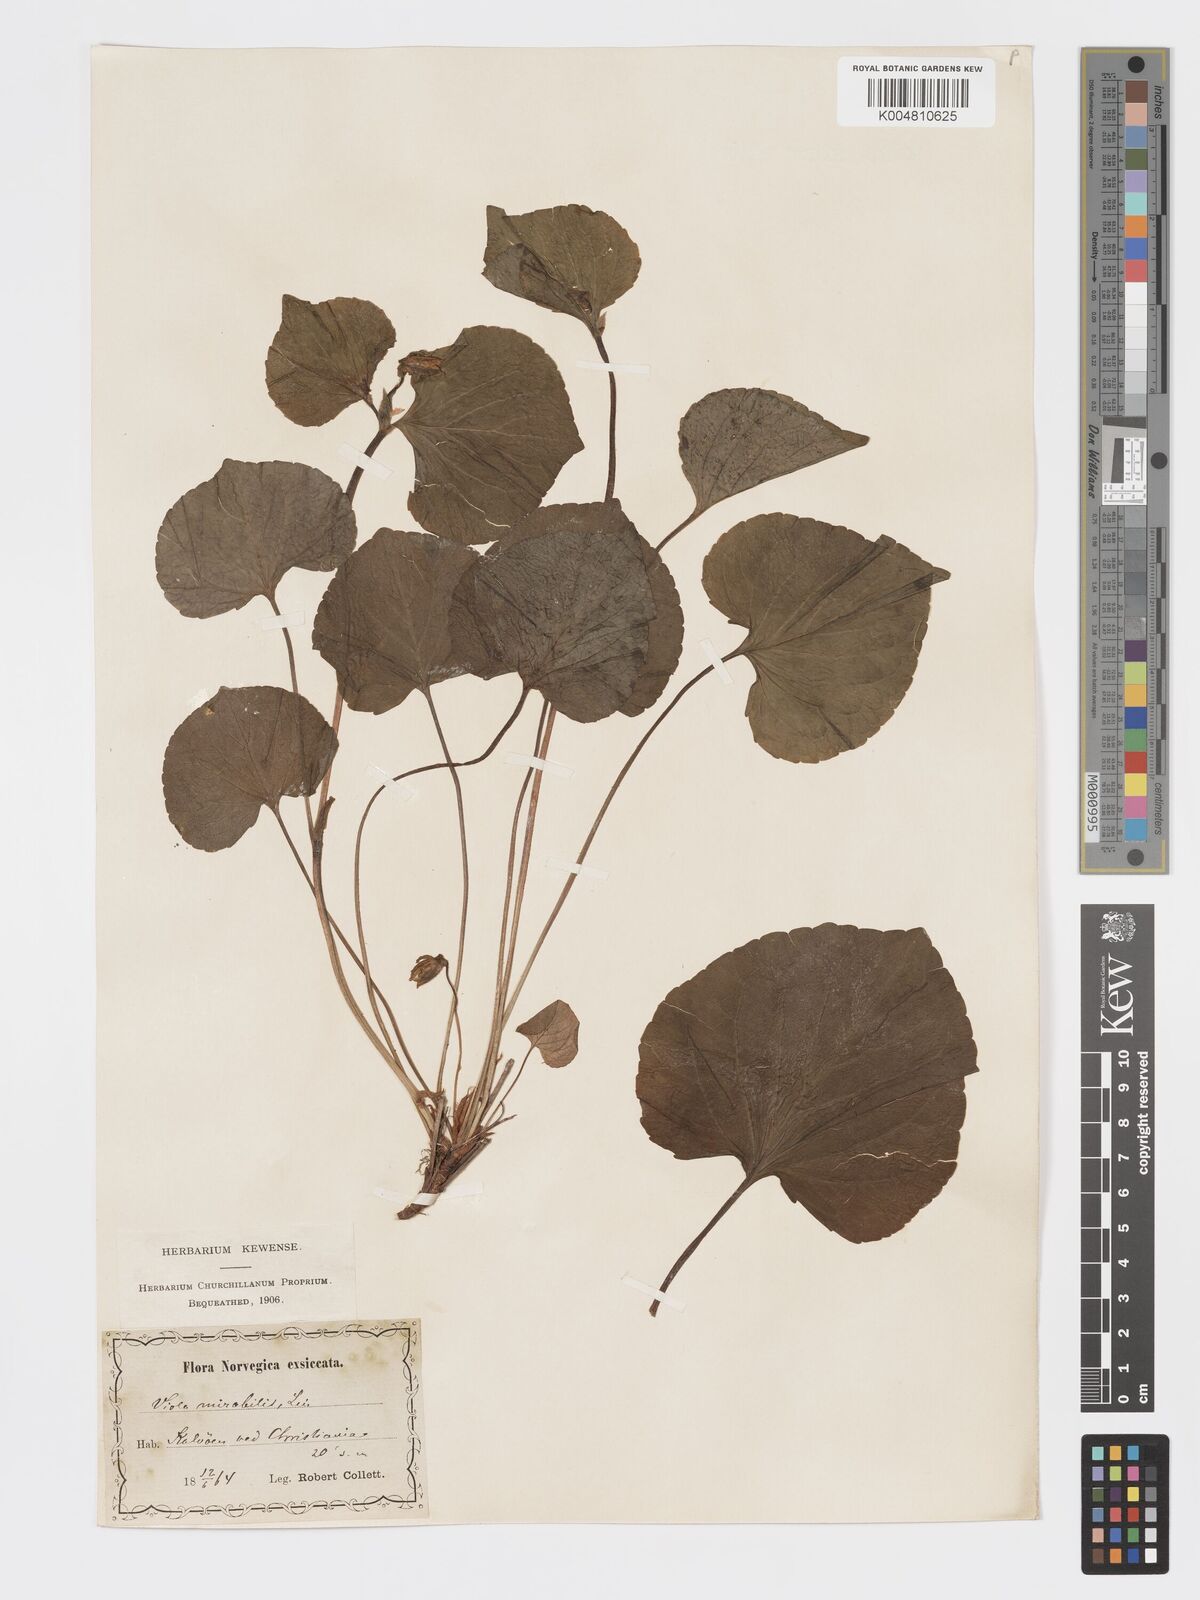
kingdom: Plantae
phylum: Tracheophyta
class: Magnoliopsida
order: Malpighiales
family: Violaceae
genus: Viola
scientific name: Viola mirabilis
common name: Wonder violet
